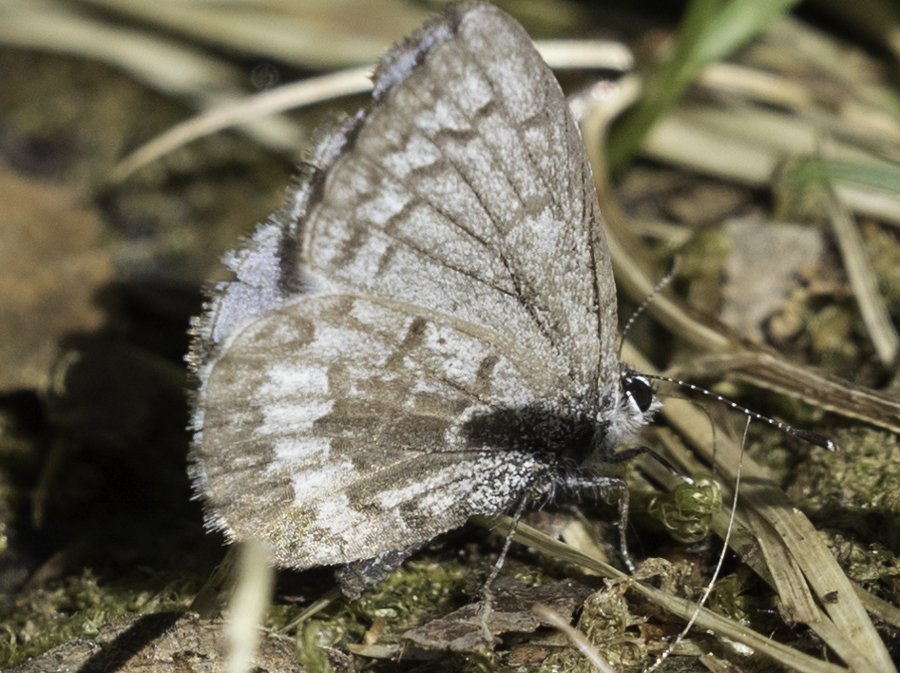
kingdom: Animalia
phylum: Arthropoda
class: Insecta
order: Lepidoptera
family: Lycaenidae
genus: Celastrina
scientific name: Celastrina lucia
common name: Northern Spring Azure
